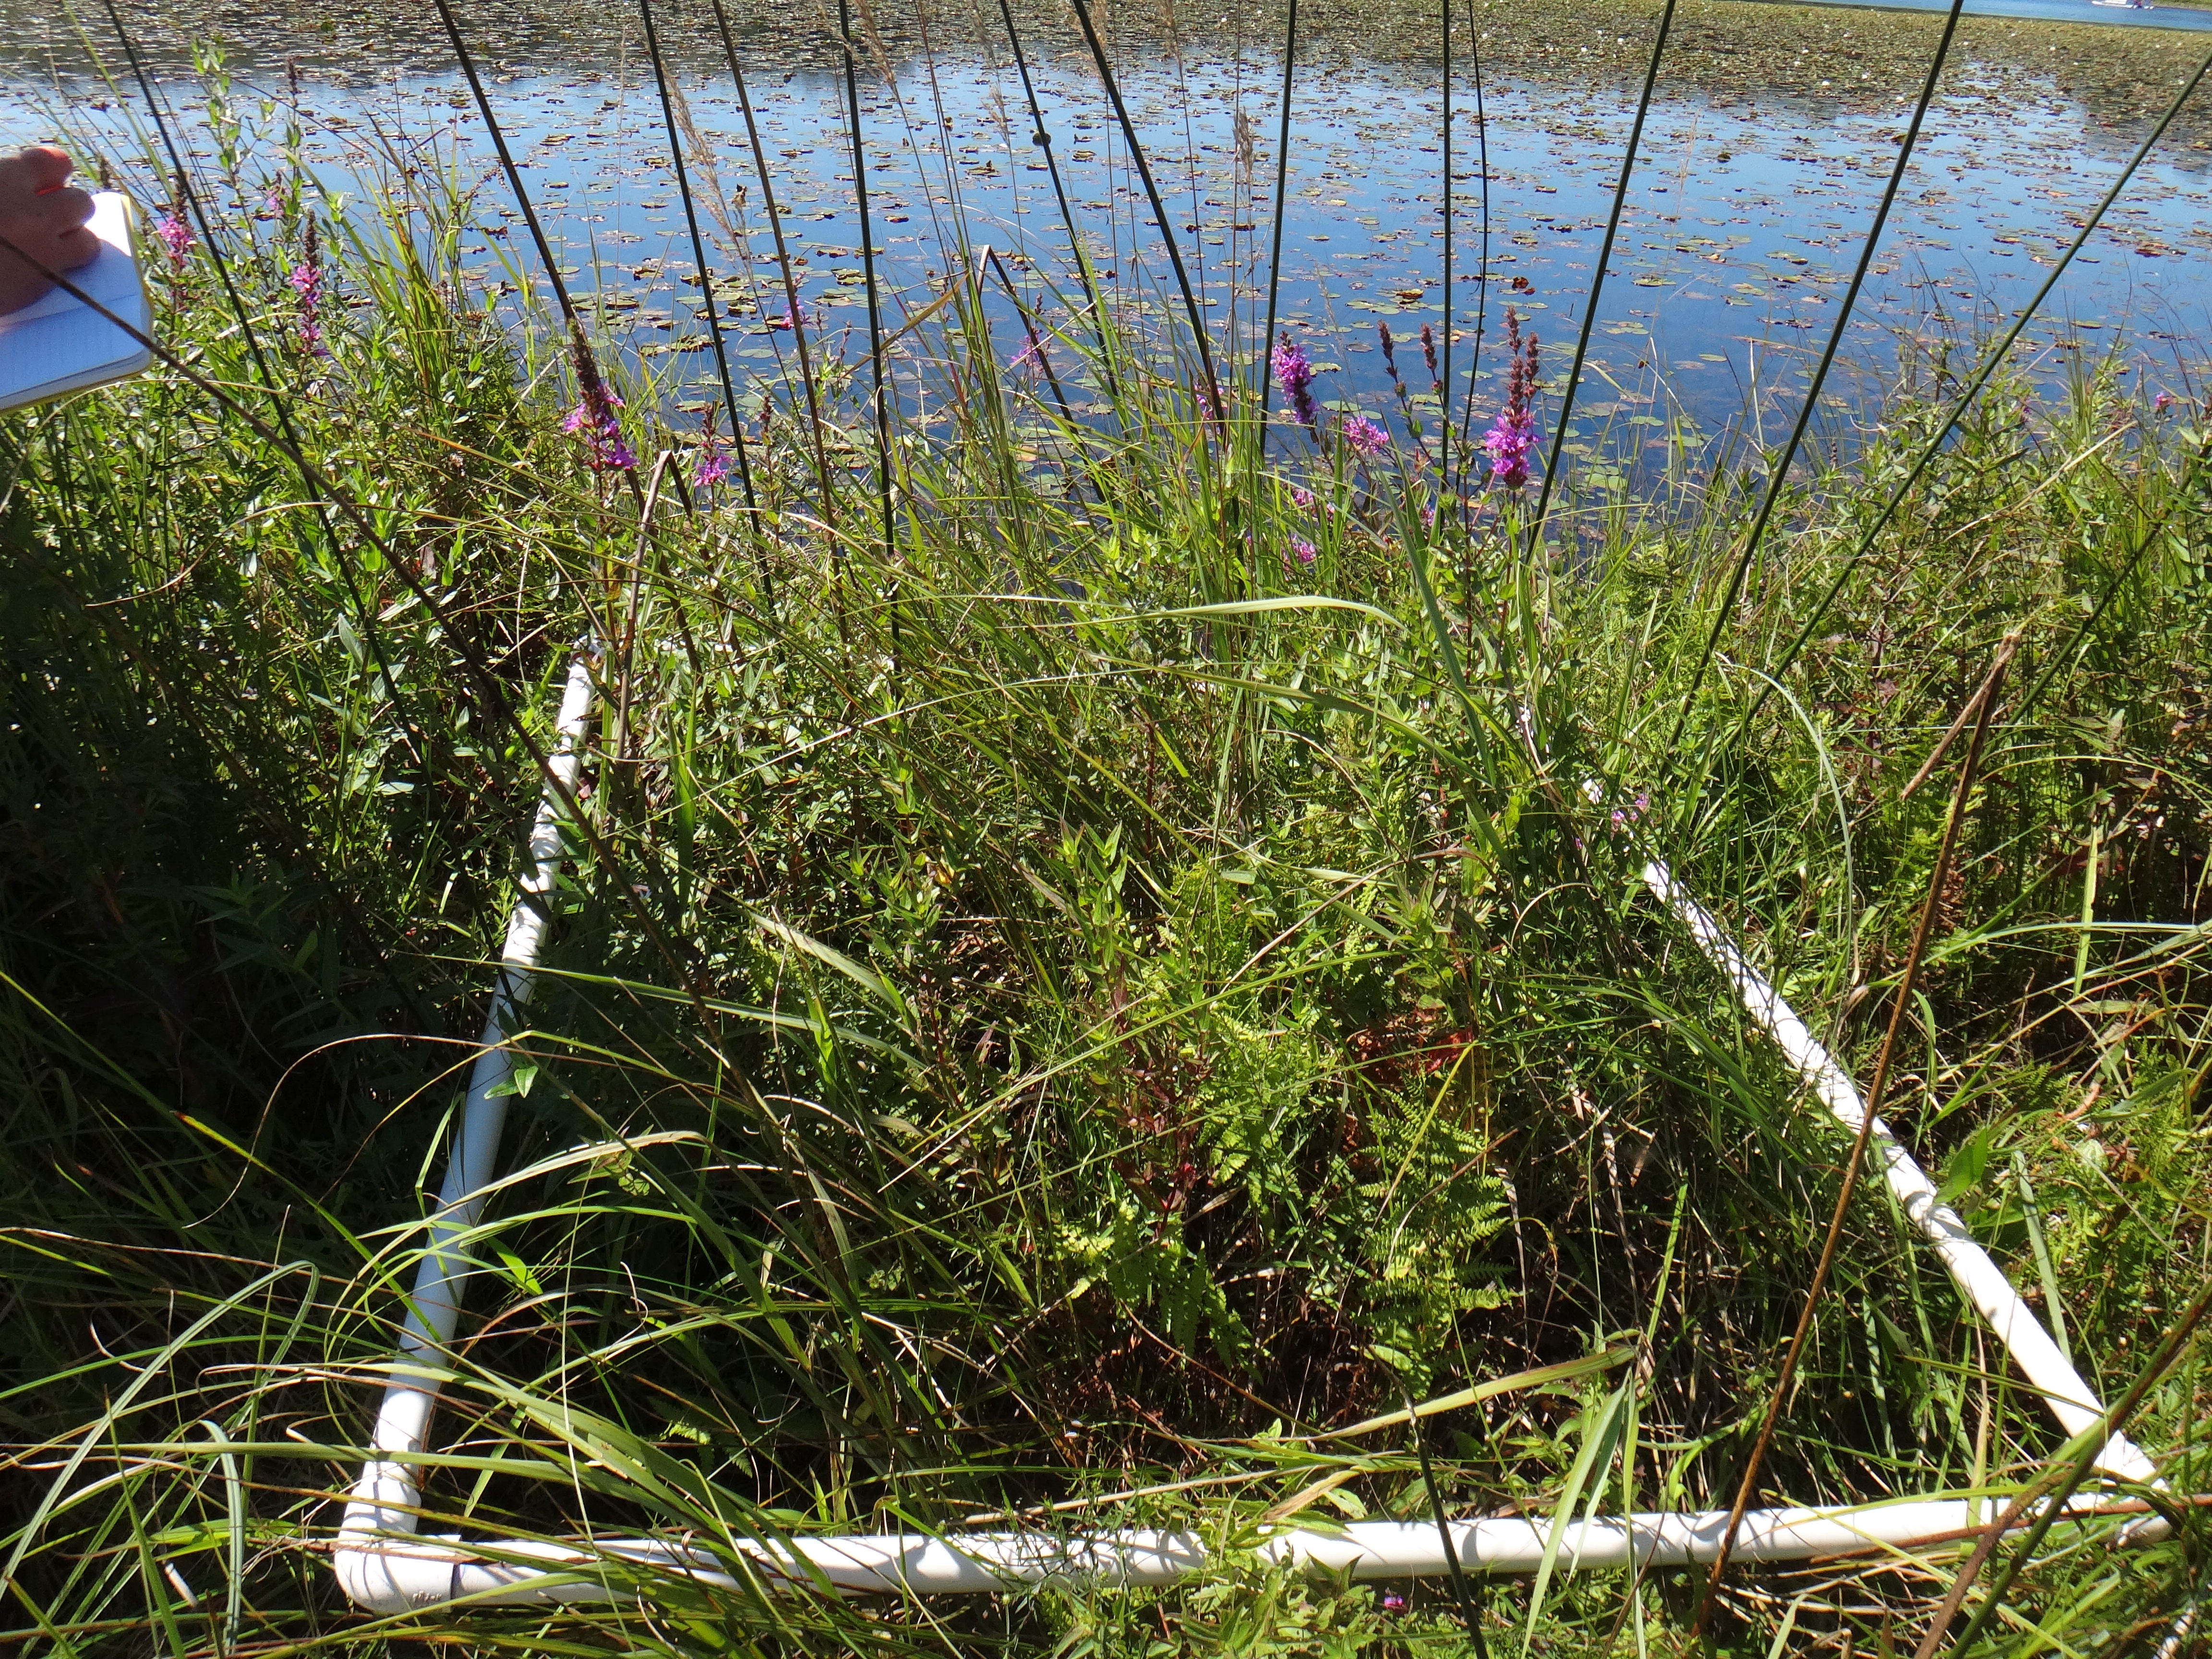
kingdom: Plantae
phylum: Tracheophyta
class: Magnoliopsida
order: Caryophyllales
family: Polygonaceae
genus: Persicaria
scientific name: Persicaria amphibia
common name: Amphibious bistort
